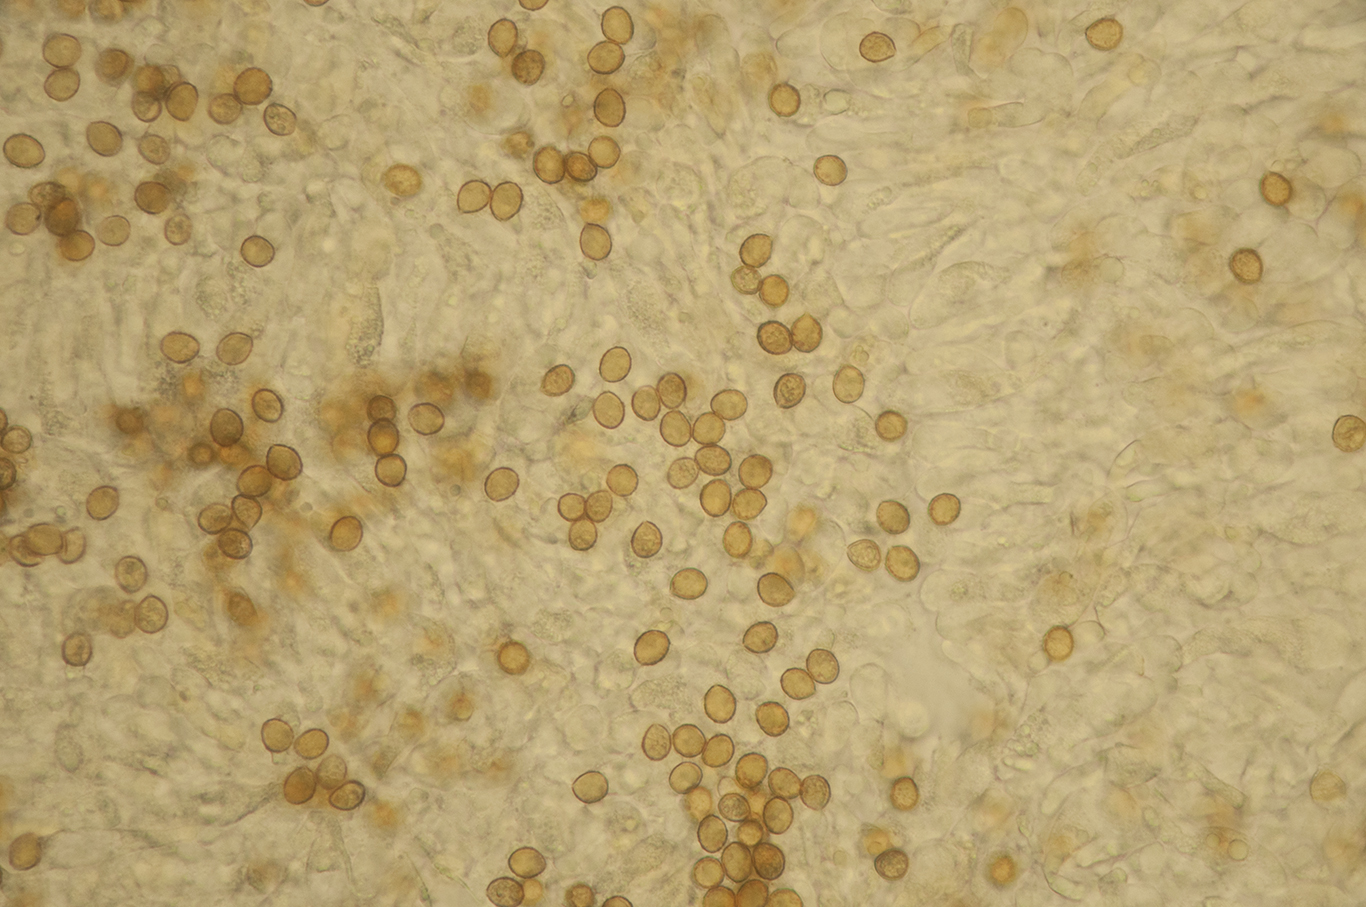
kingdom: Fungi
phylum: Basidiomycota
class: Agaricomycetes
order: Agaricales
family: Cortinariaceae
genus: Cortinarius
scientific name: Cortinarius anomalus
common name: Variable webcap
